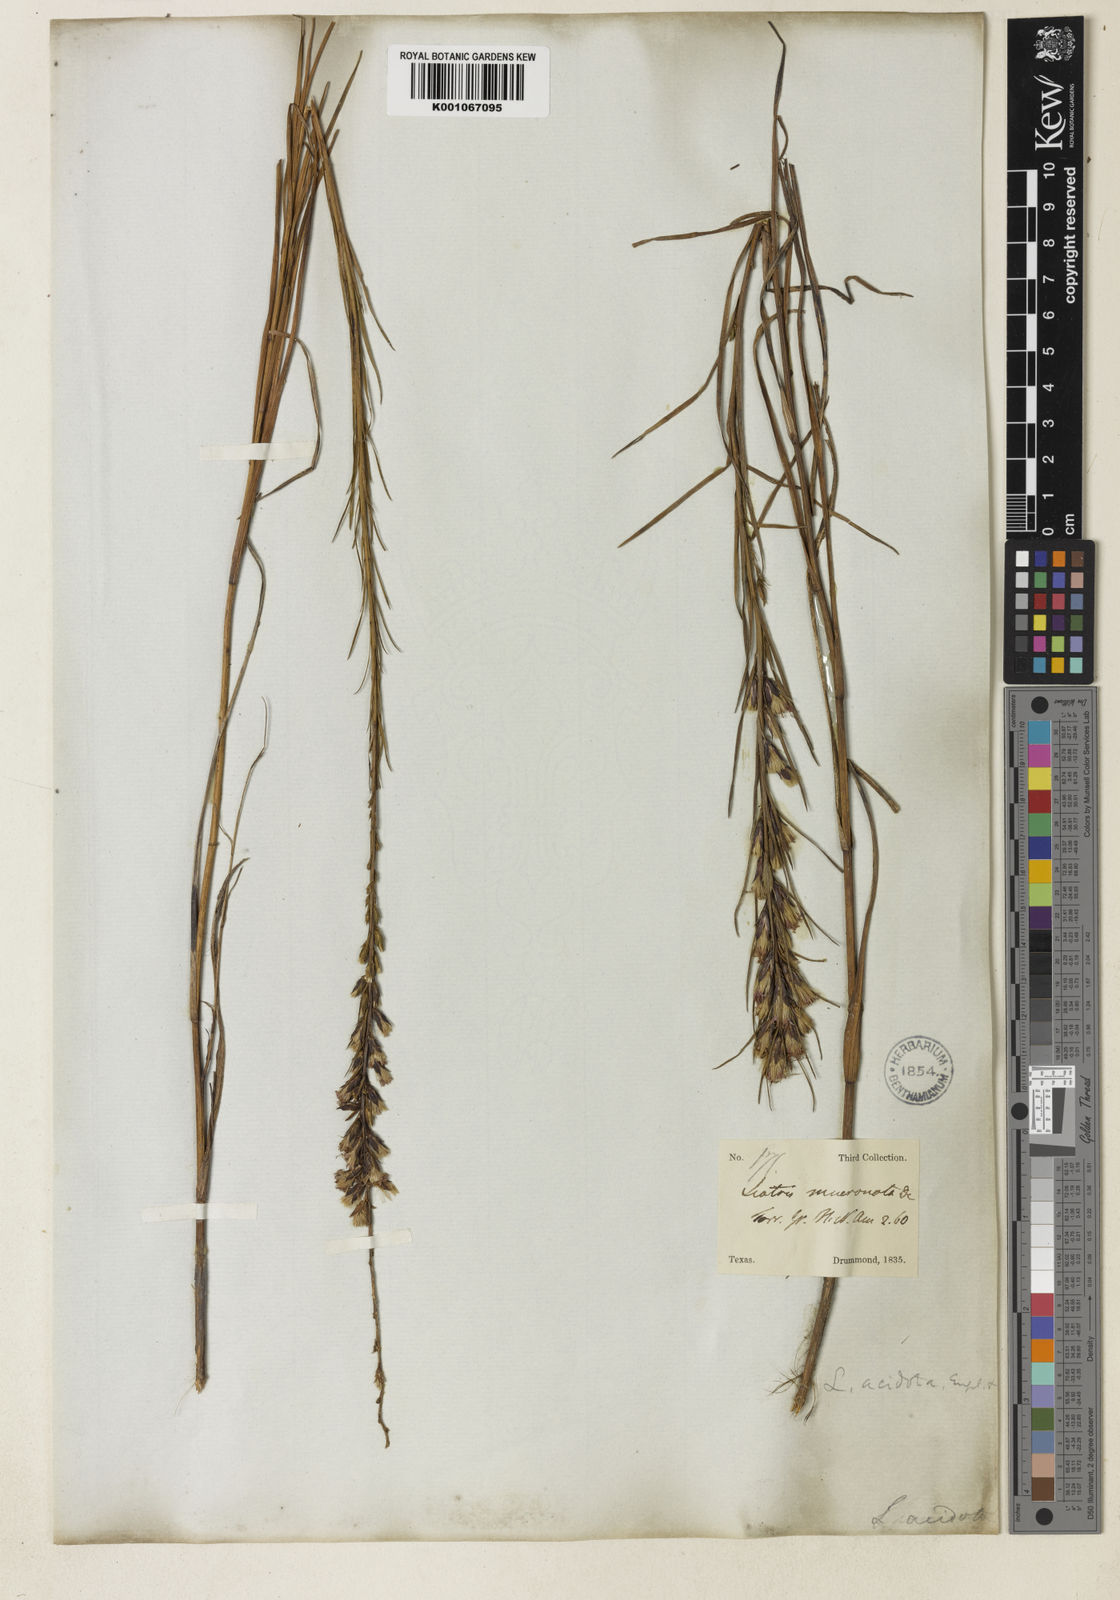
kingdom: Plantae
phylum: Tracheophyta
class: Magnoliopsida
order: Asterales
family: Asteraceae
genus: Liatris
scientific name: Liatris acidota
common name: Gulf coast gayfeather
